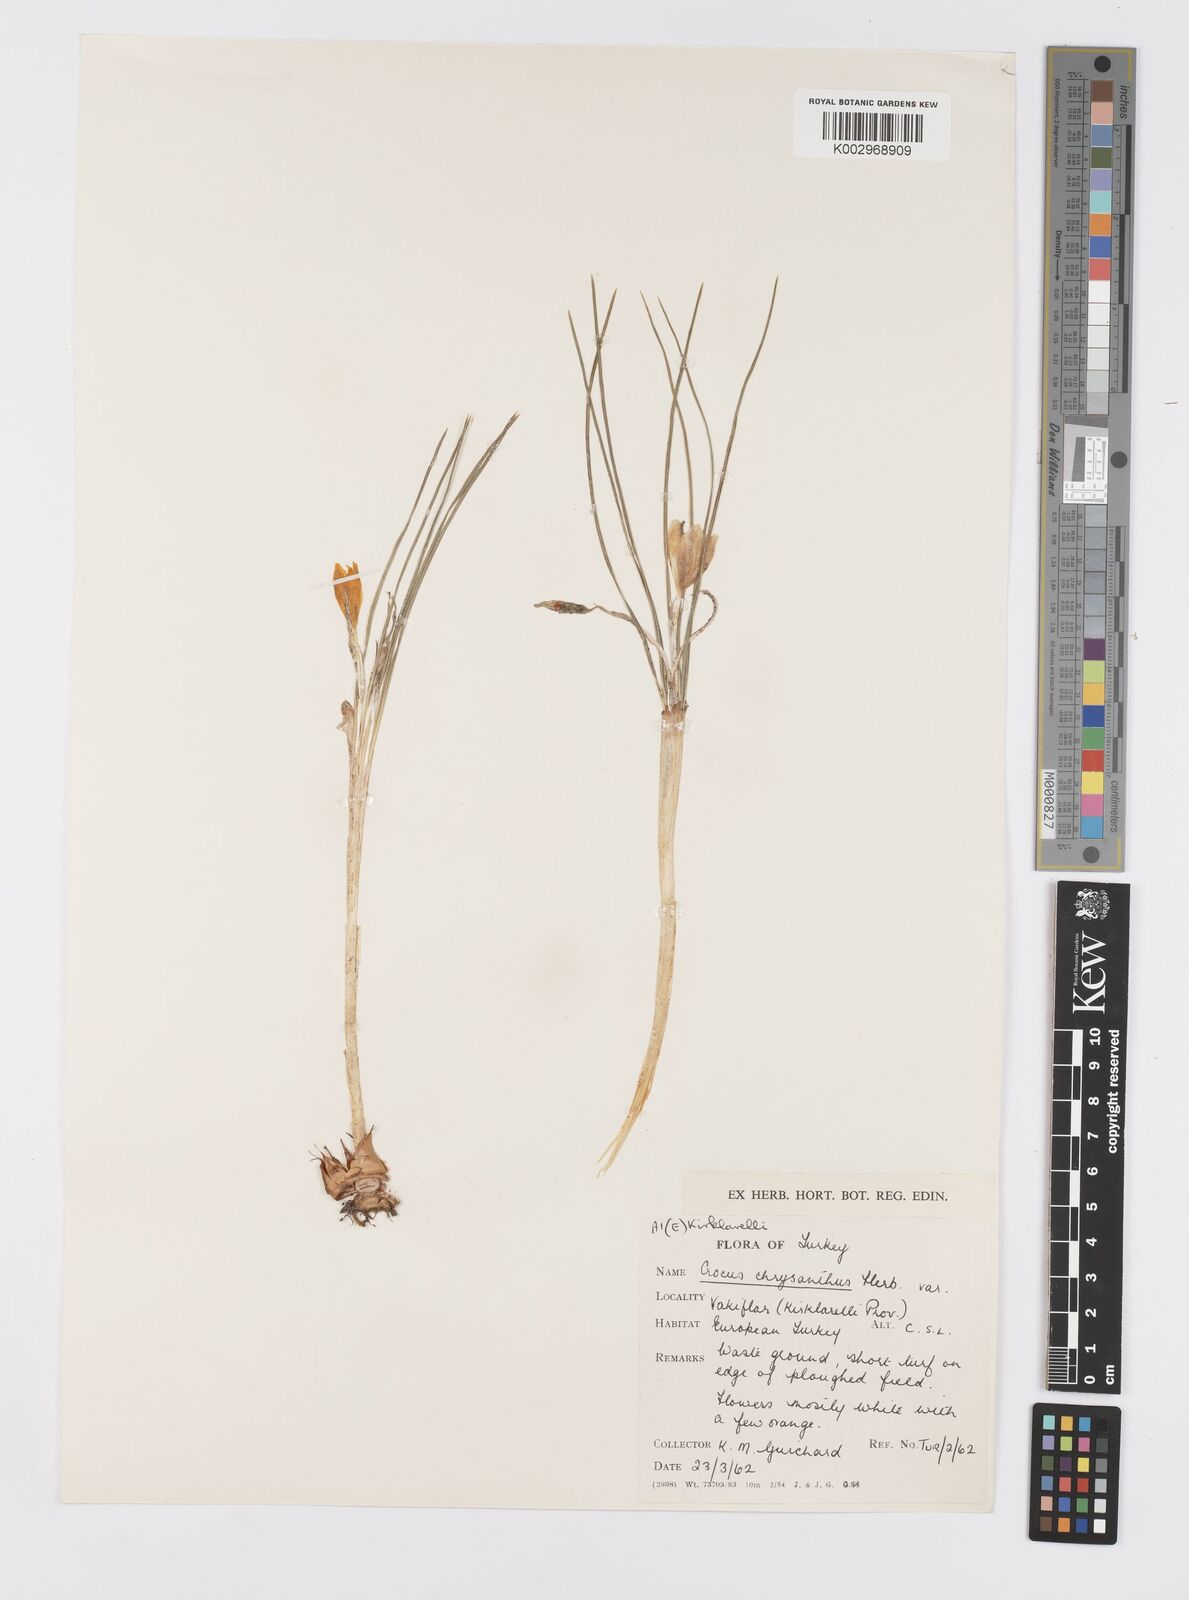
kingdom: Plantae
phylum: Tracheophyta
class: Liliopsida
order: Asparagales
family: Iridaceae
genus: Crocus
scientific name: Crocus chrysanthus
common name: Golden crocus
